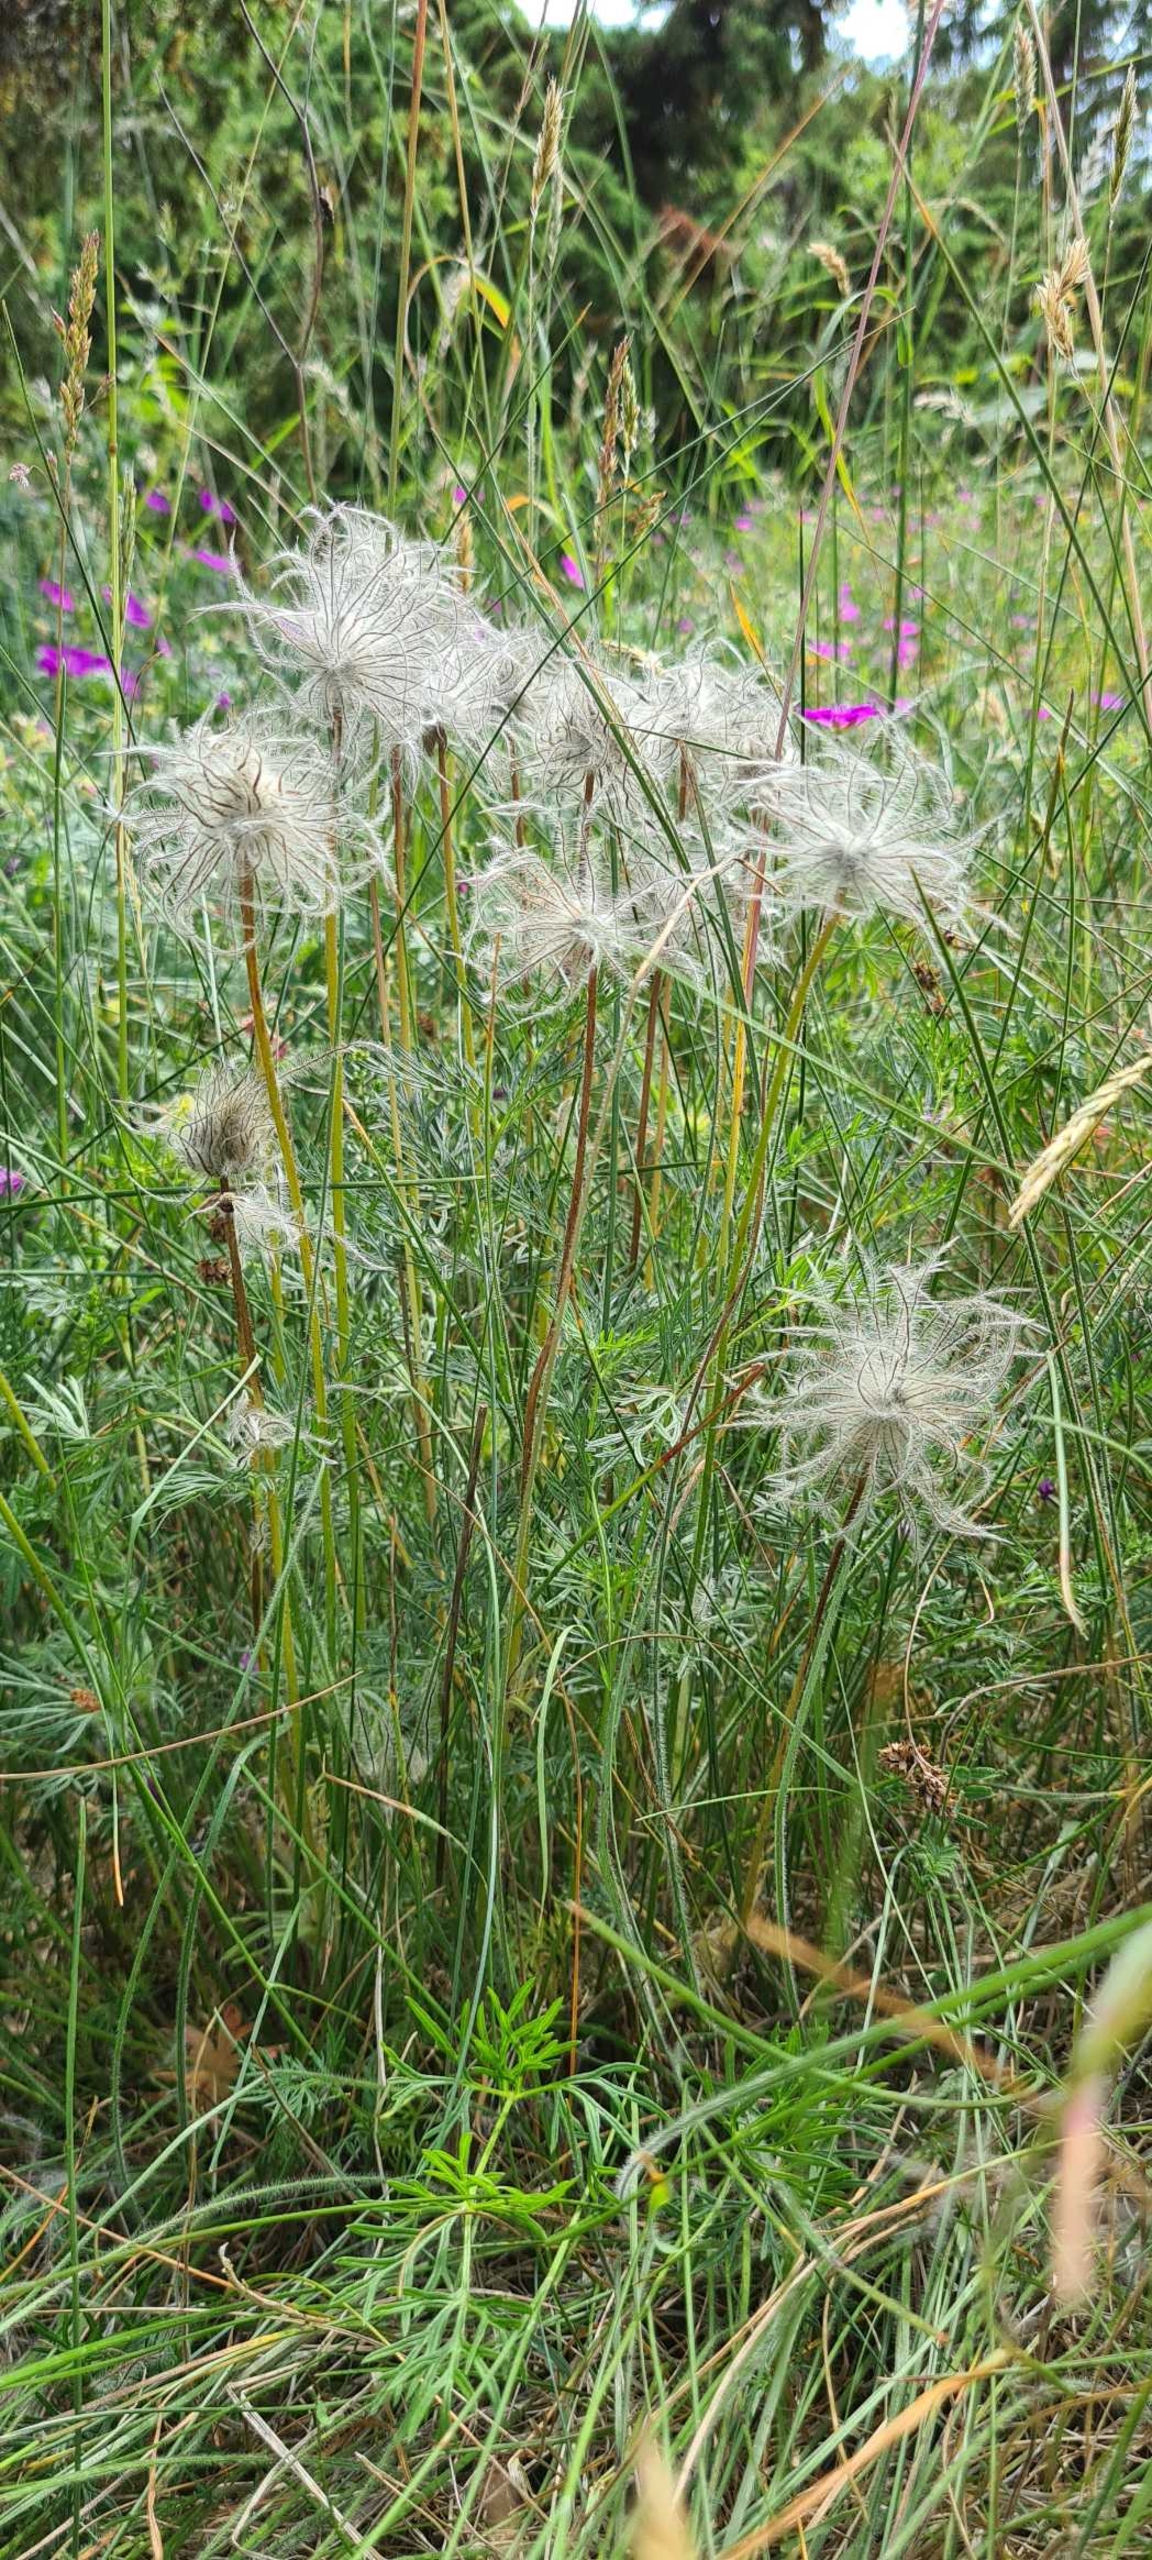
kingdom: Plantae
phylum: Tracheophyta
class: Magnoliopsida
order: Ranunculales
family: Ranunculaceae
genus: Pulsatilla
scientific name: Pulsatilla vulgaris
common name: Opret kobjælde
